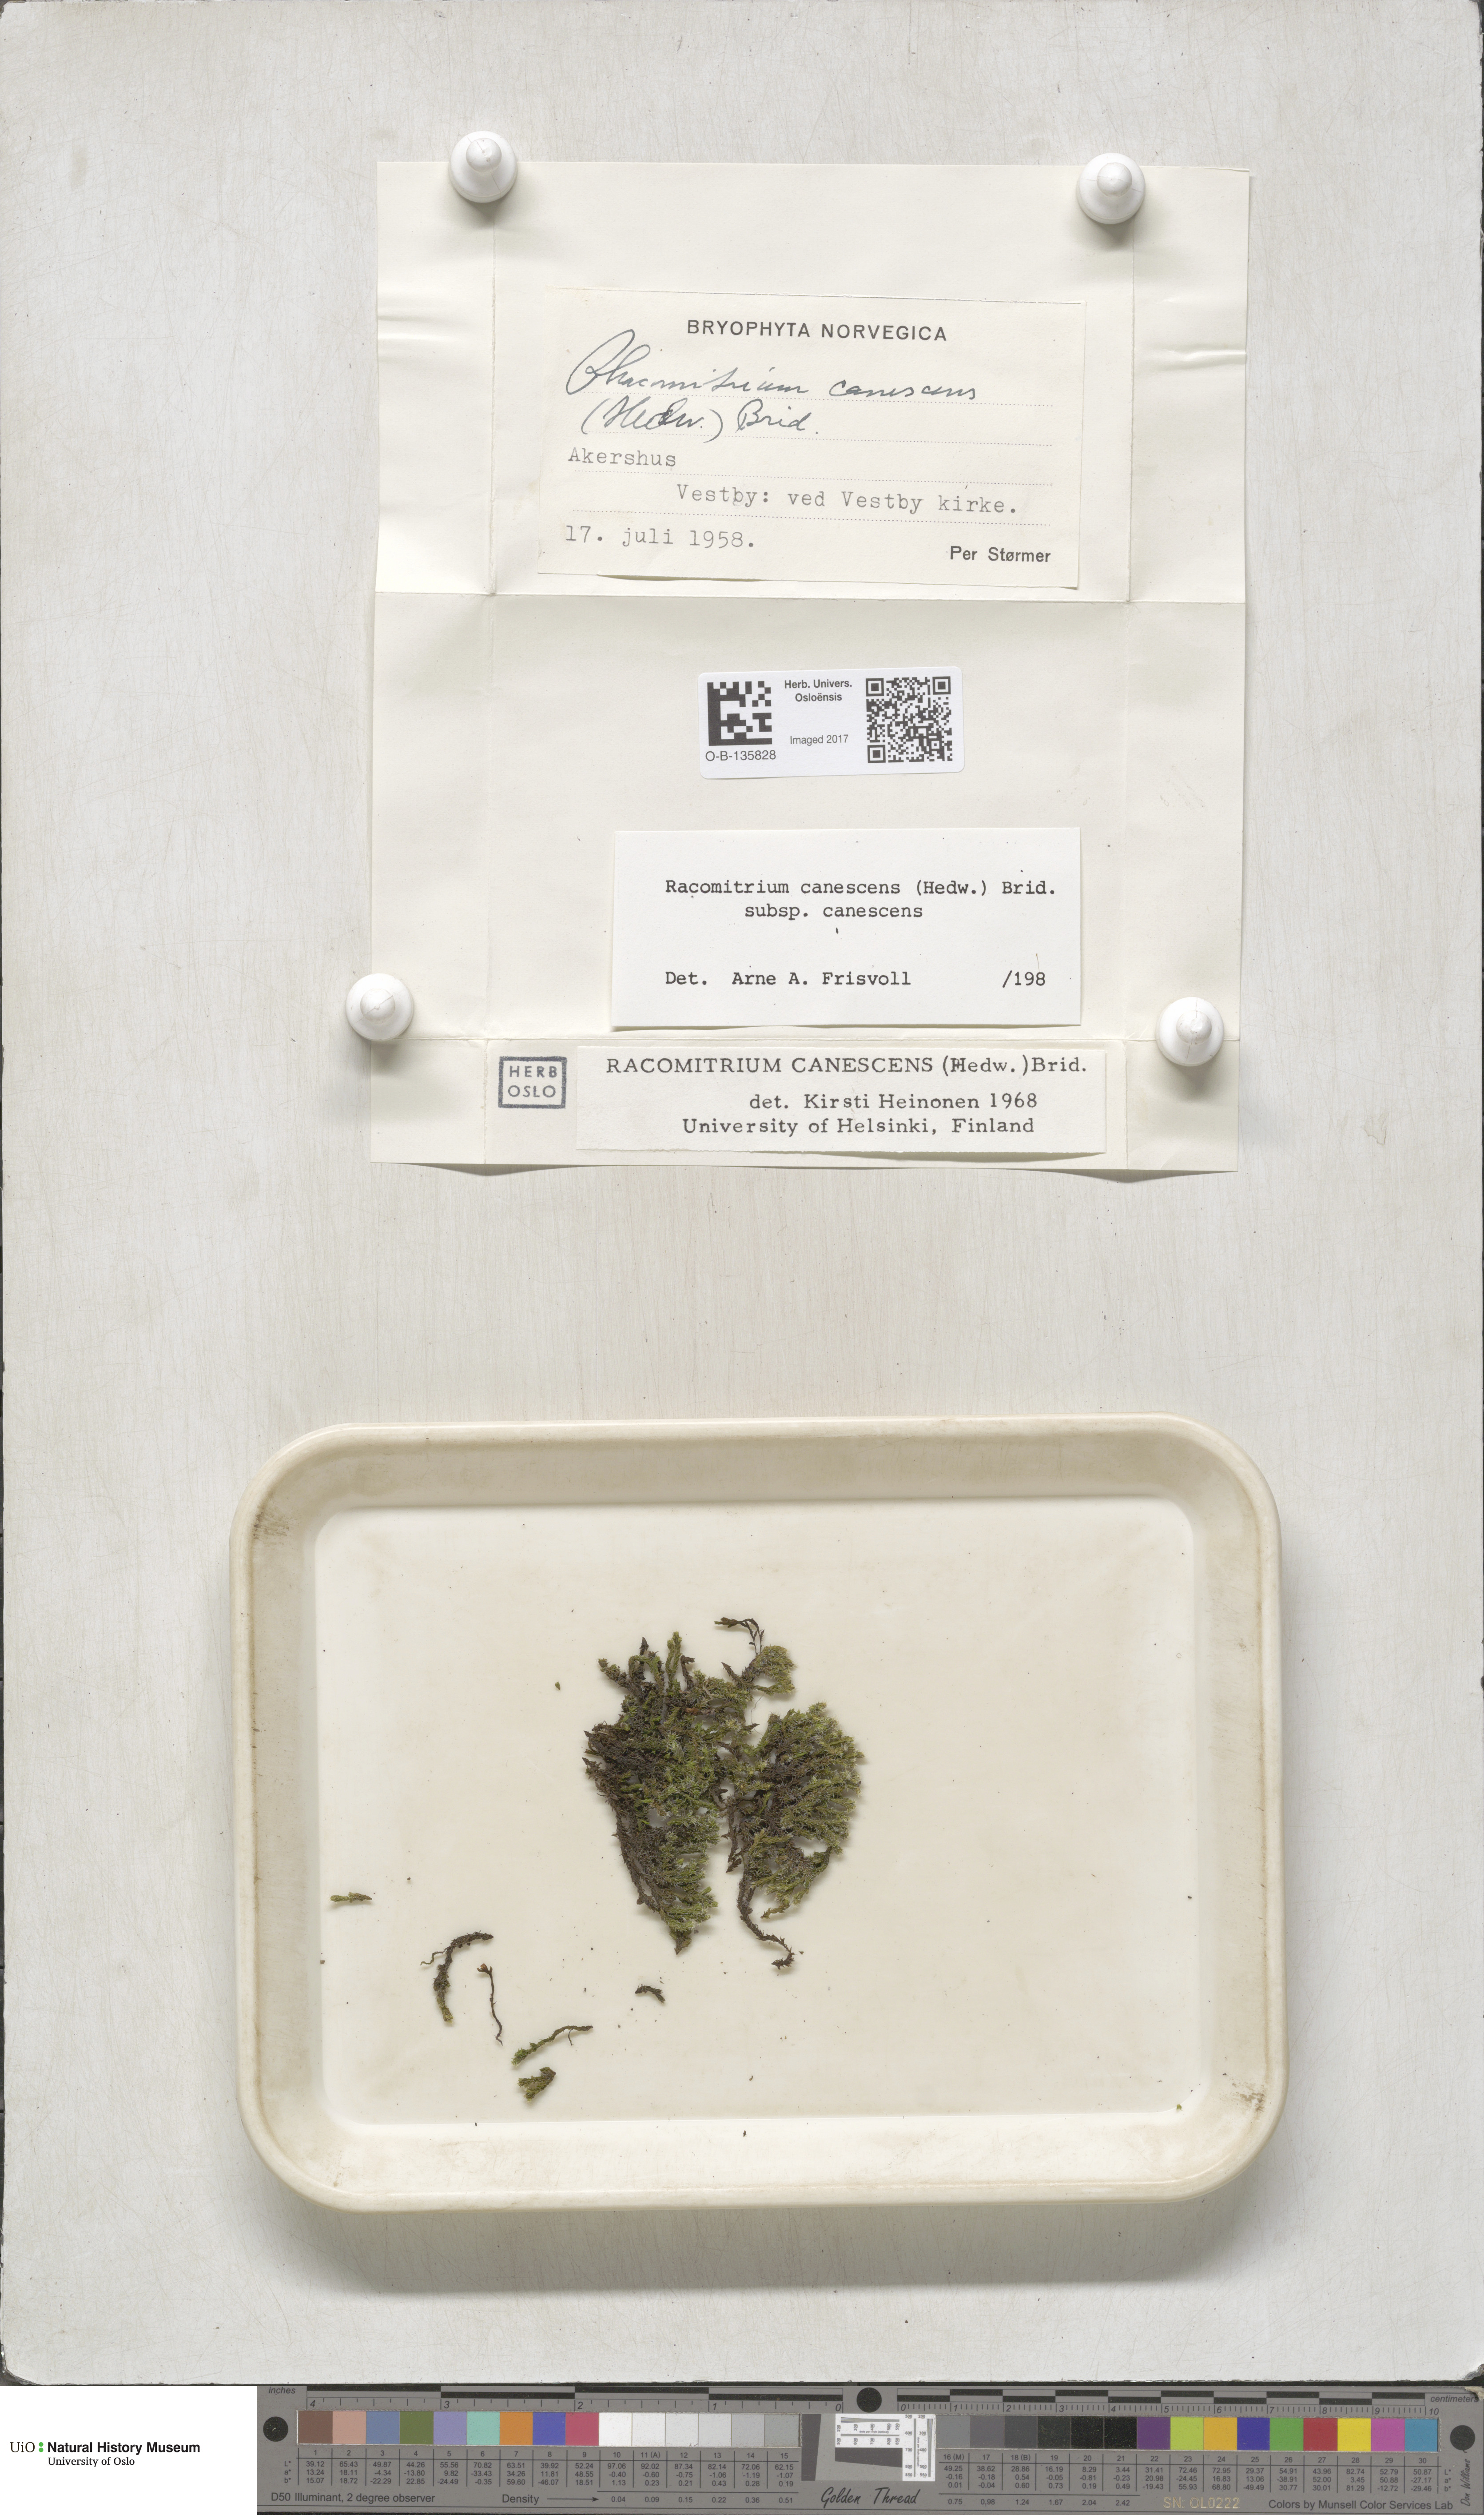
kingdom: Plantae
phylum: Bryophyta
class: Bryopsida
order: Grimmiales
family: Grimmiaceae
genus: Niphotrichum
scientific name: Niphotrichum canescens
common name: Hoary fringe-moss
